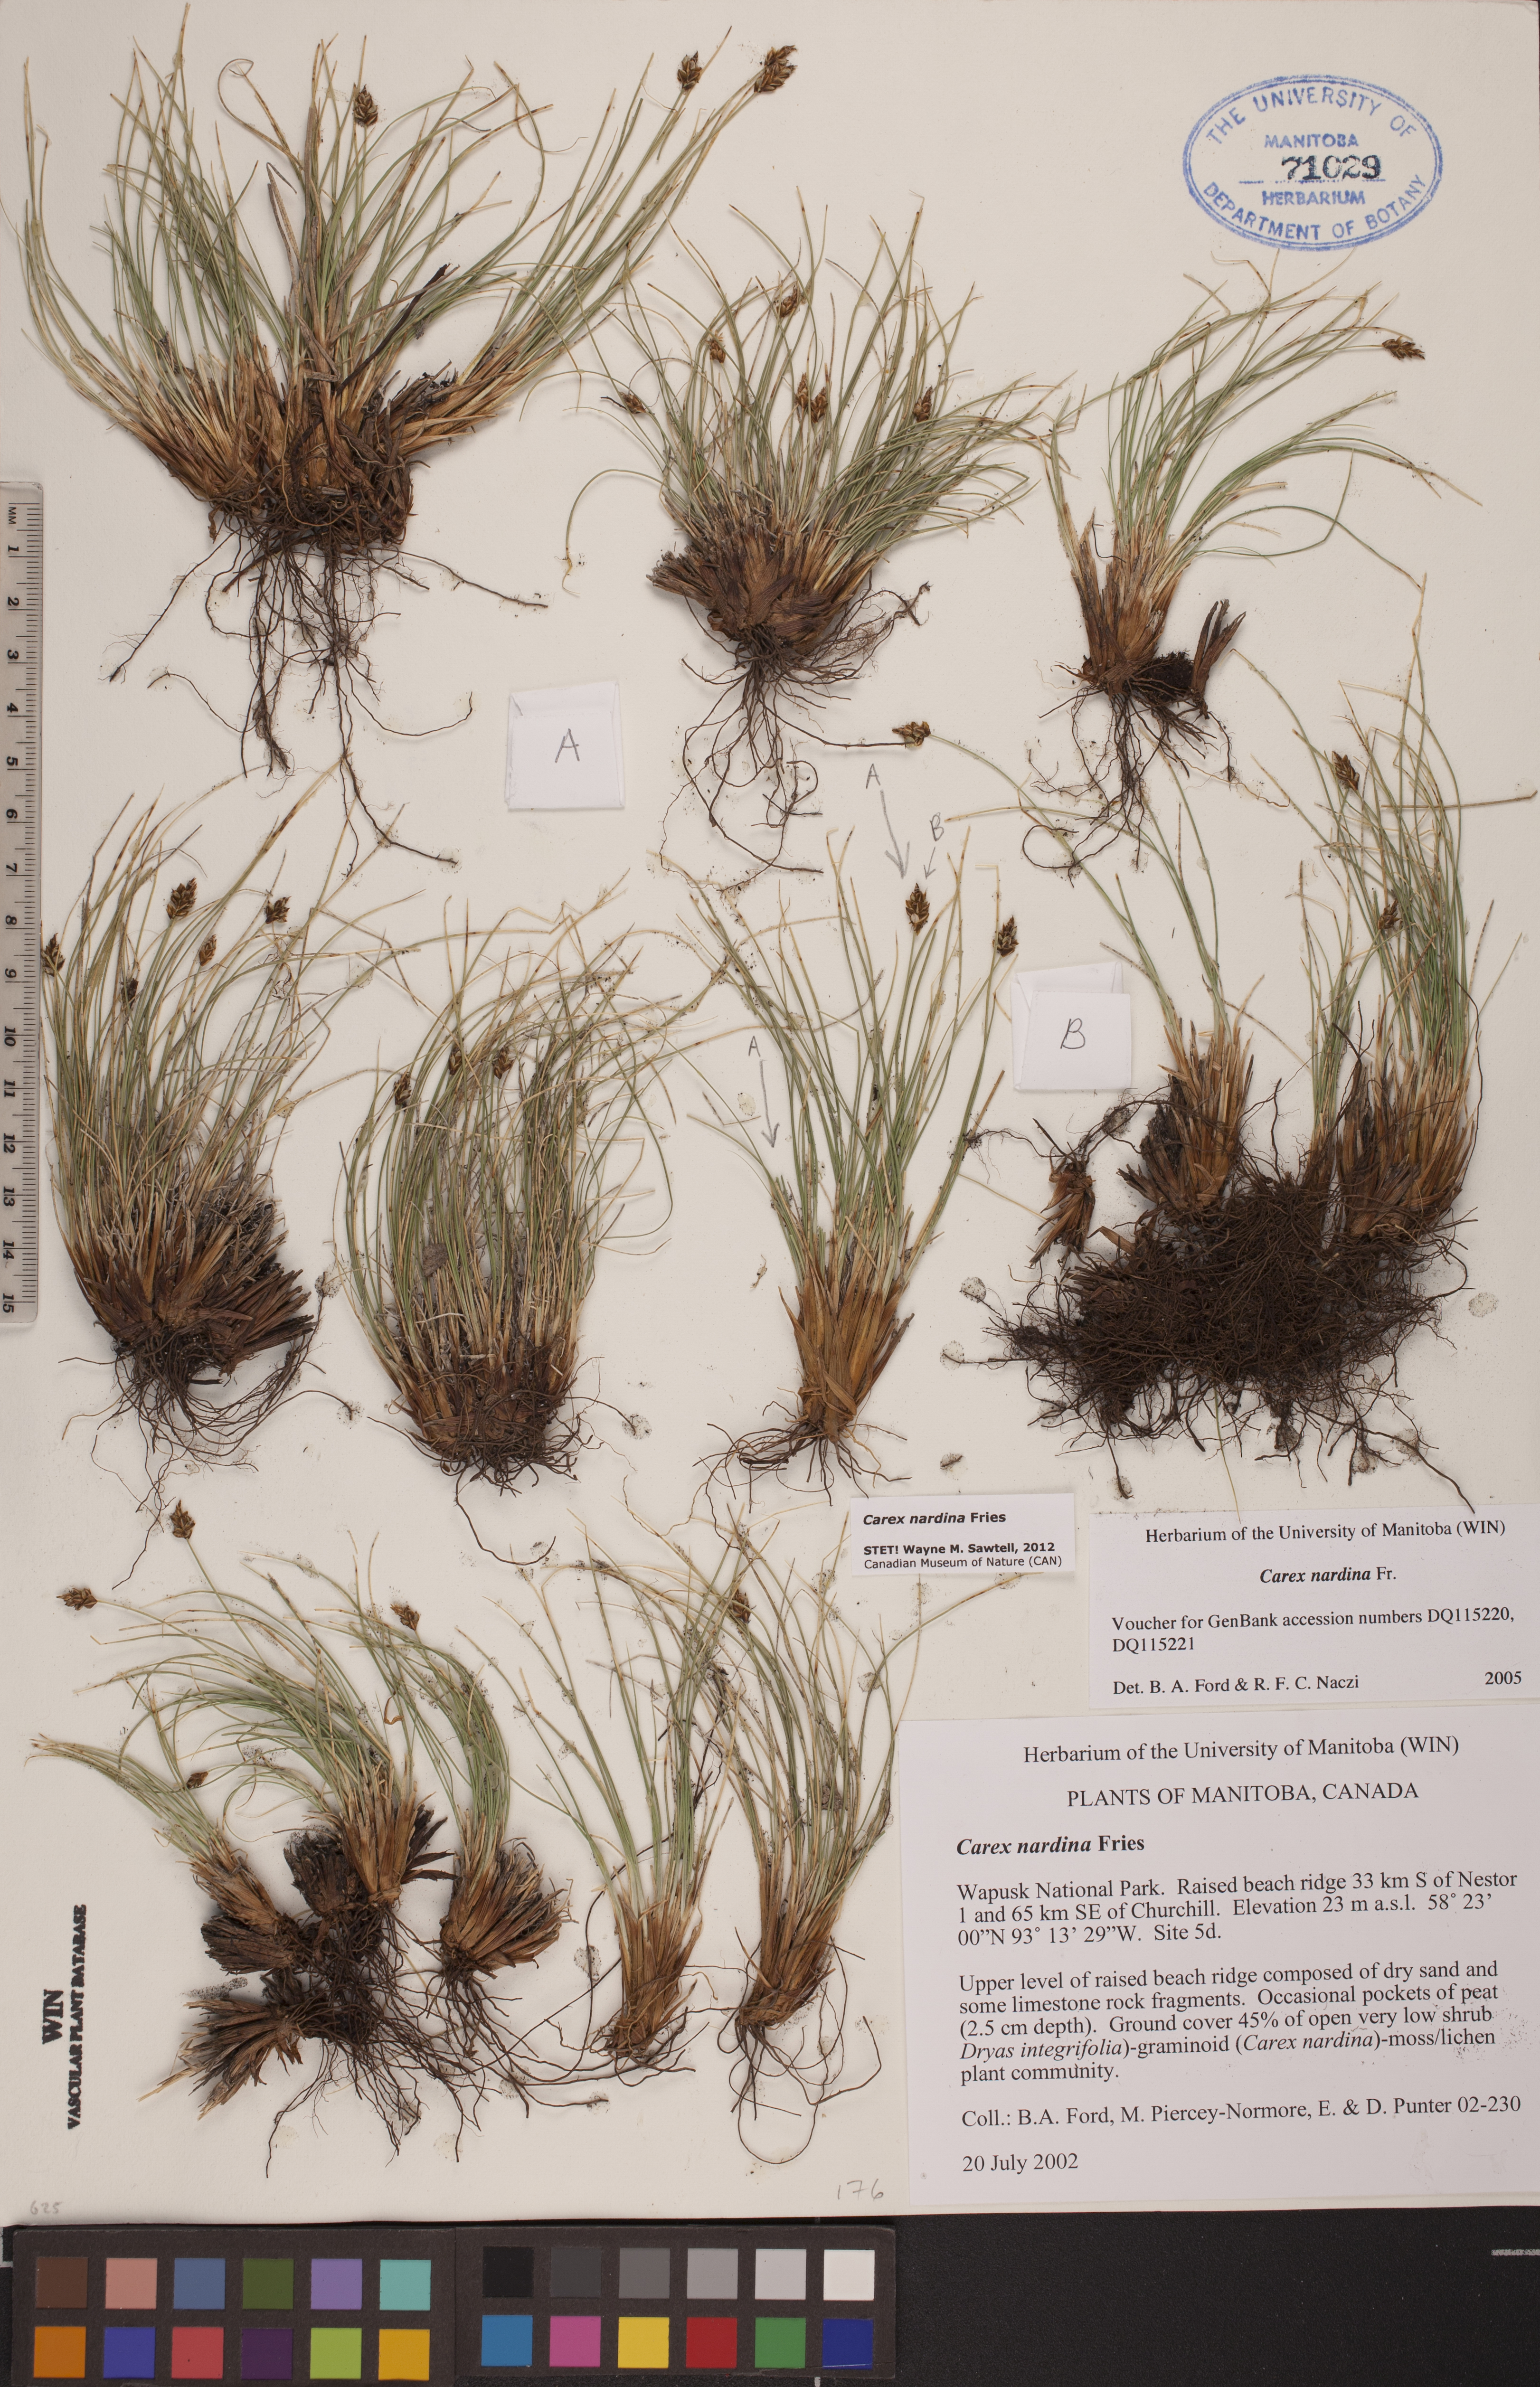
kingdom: Plantae
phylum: Tracheophyta
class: Liliopsida
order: Poales
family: Cyperaceae
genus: Carex
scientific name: Carex nardina
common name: Nard sedge
